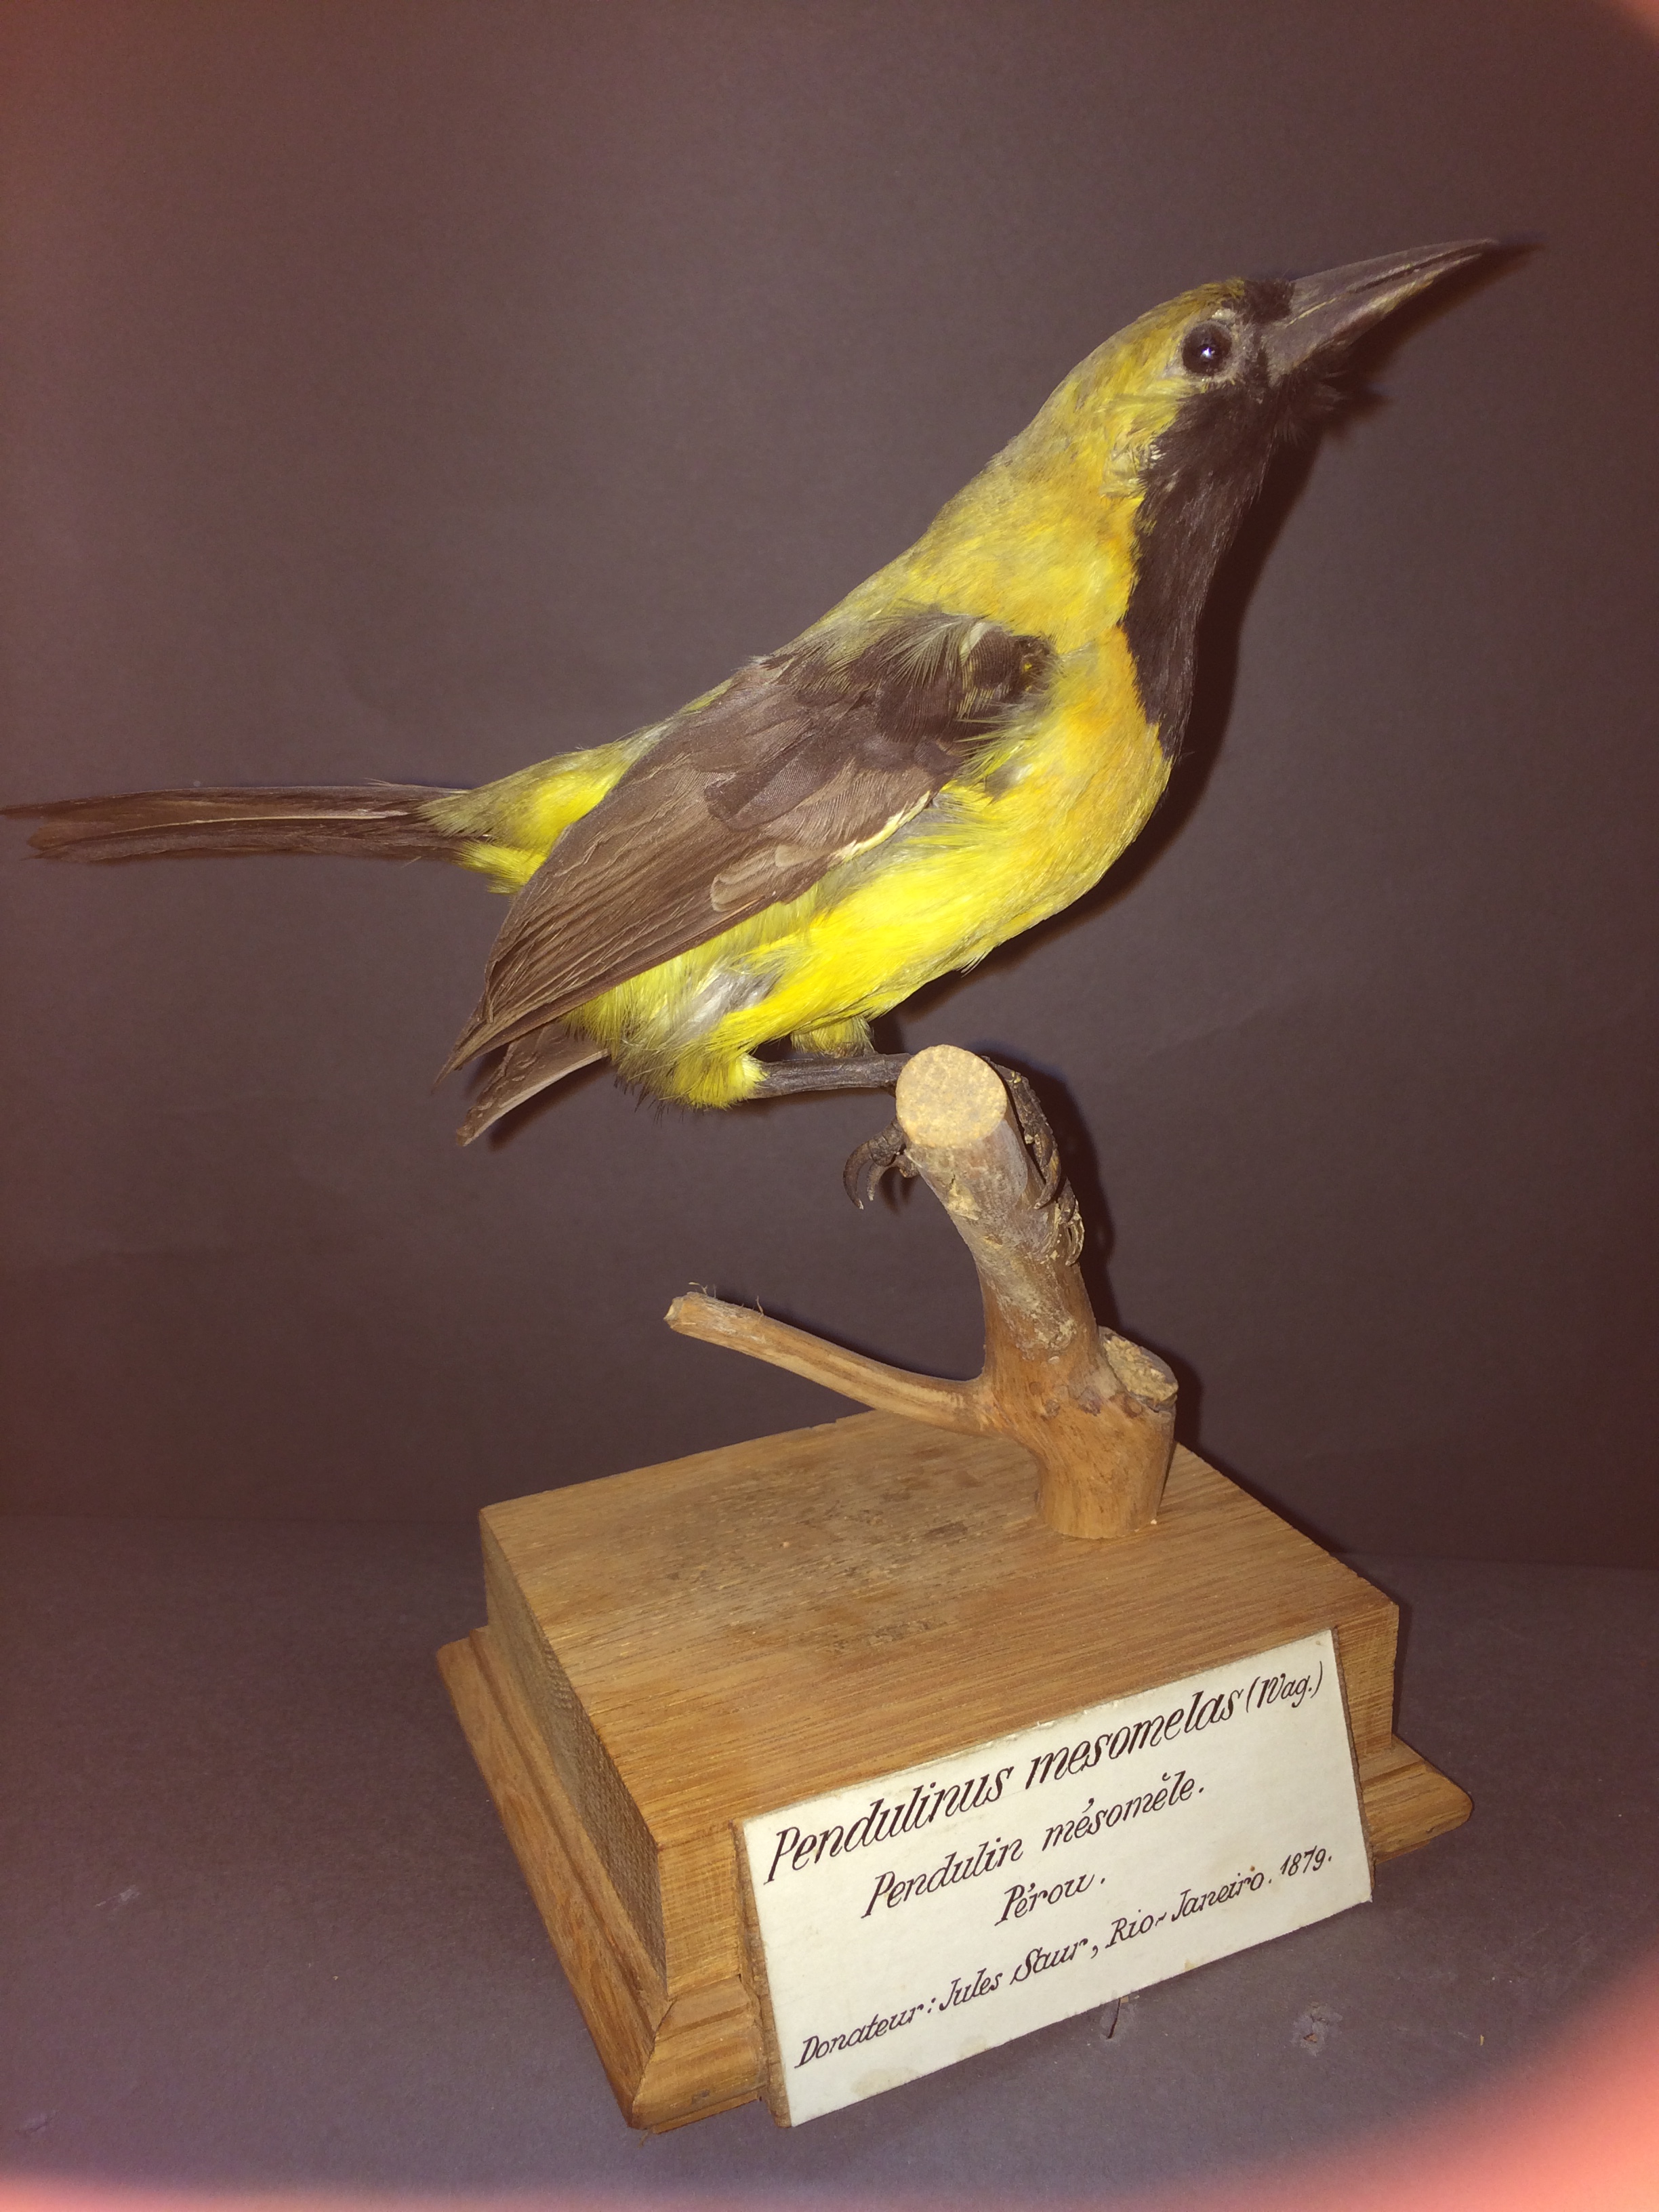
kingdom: Animalia
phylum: Chordata
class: Aves
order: Passeriformes
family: Icteridae
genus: Icterus
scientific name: Icterus chrysater
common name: Yellow-backed oriole
